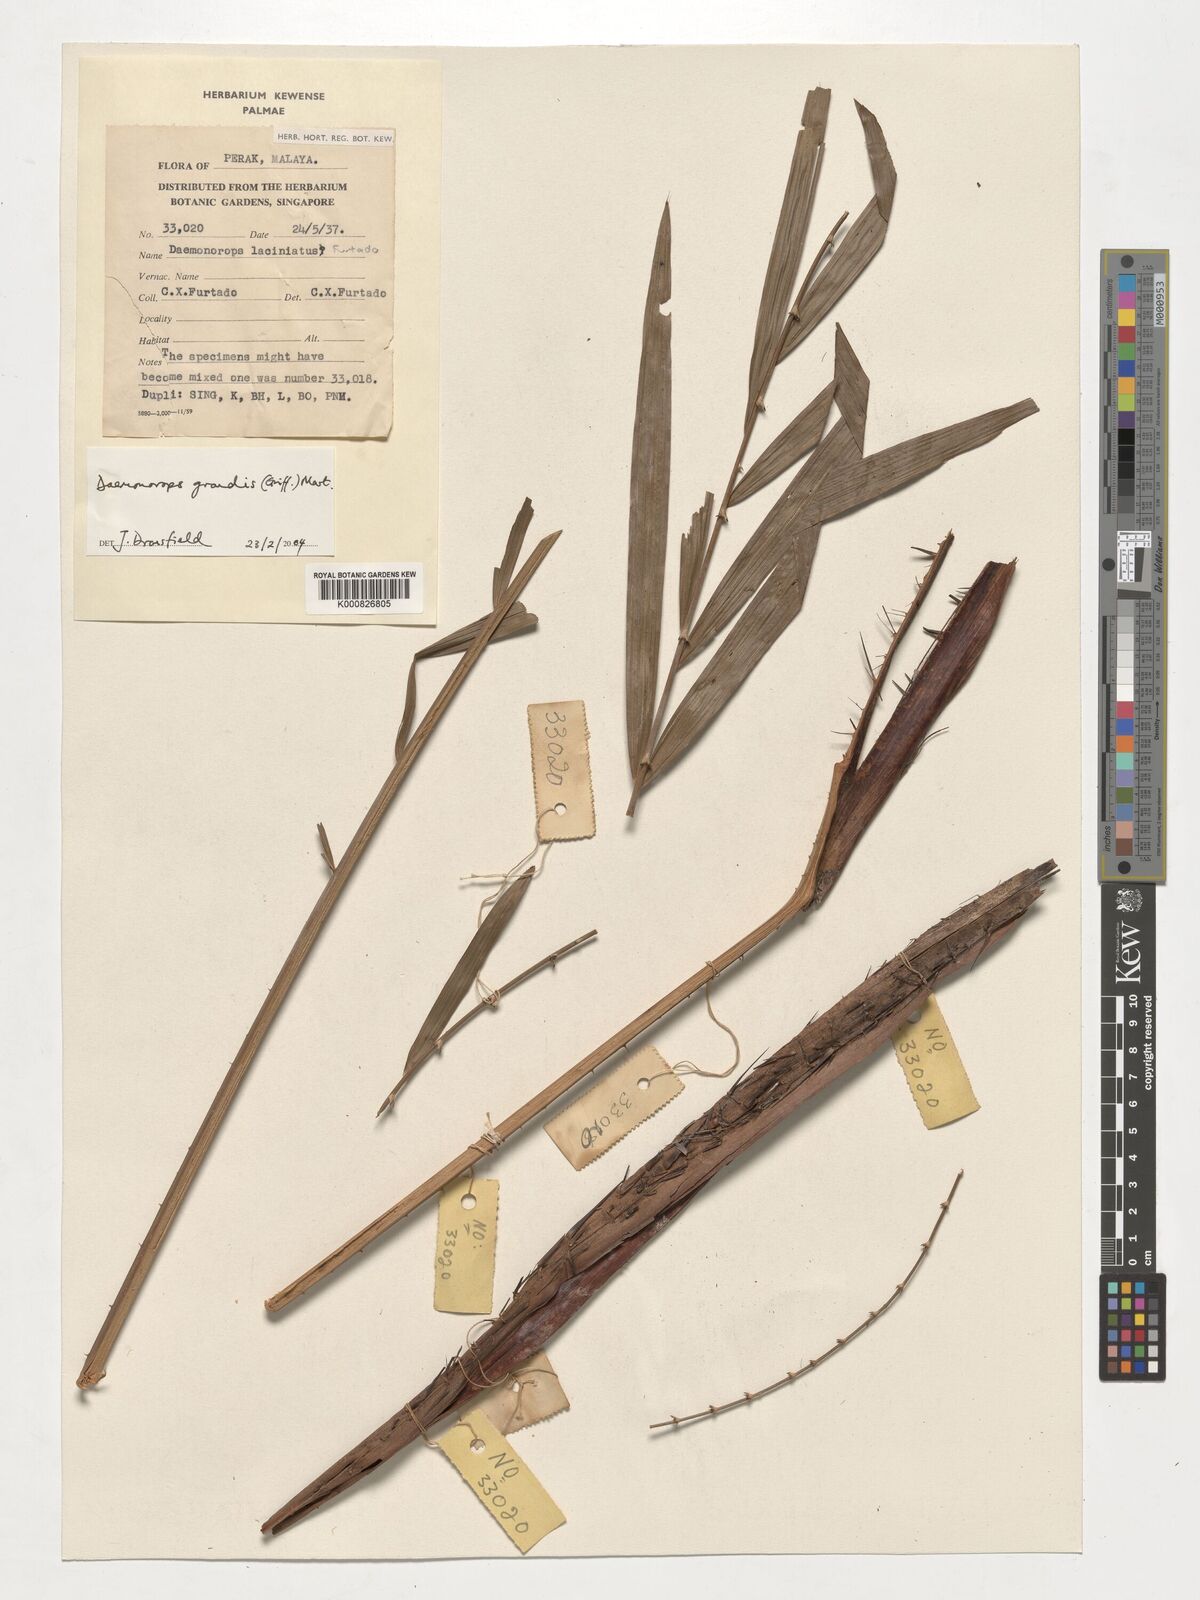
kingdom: Plantae
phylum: Tracheophyta
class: Liliopsida
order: Arecales
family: Arecaceae
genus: Calamus
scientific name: Calamus melanochaetes
